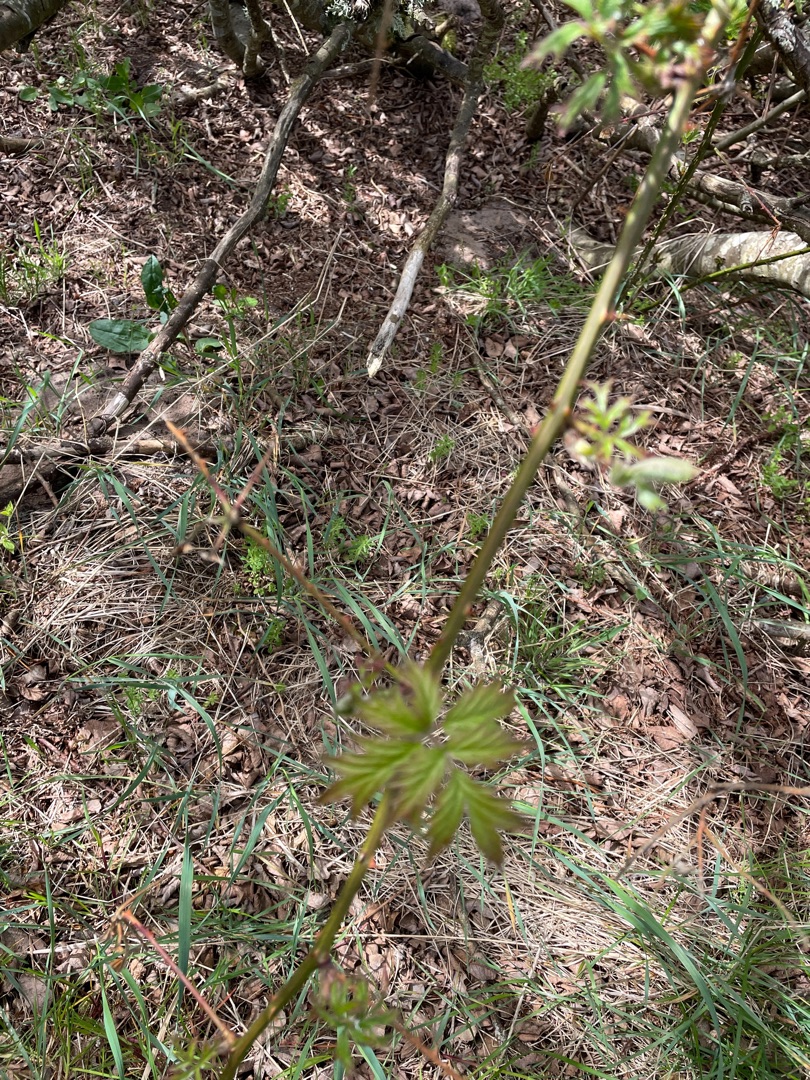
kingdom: Plantae
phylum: Tracheophyta
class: Magnoliopsida
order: Rosales
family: Rosaceae
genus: Rubus
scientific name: Rubus laciniatus
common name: Fliget brombær
